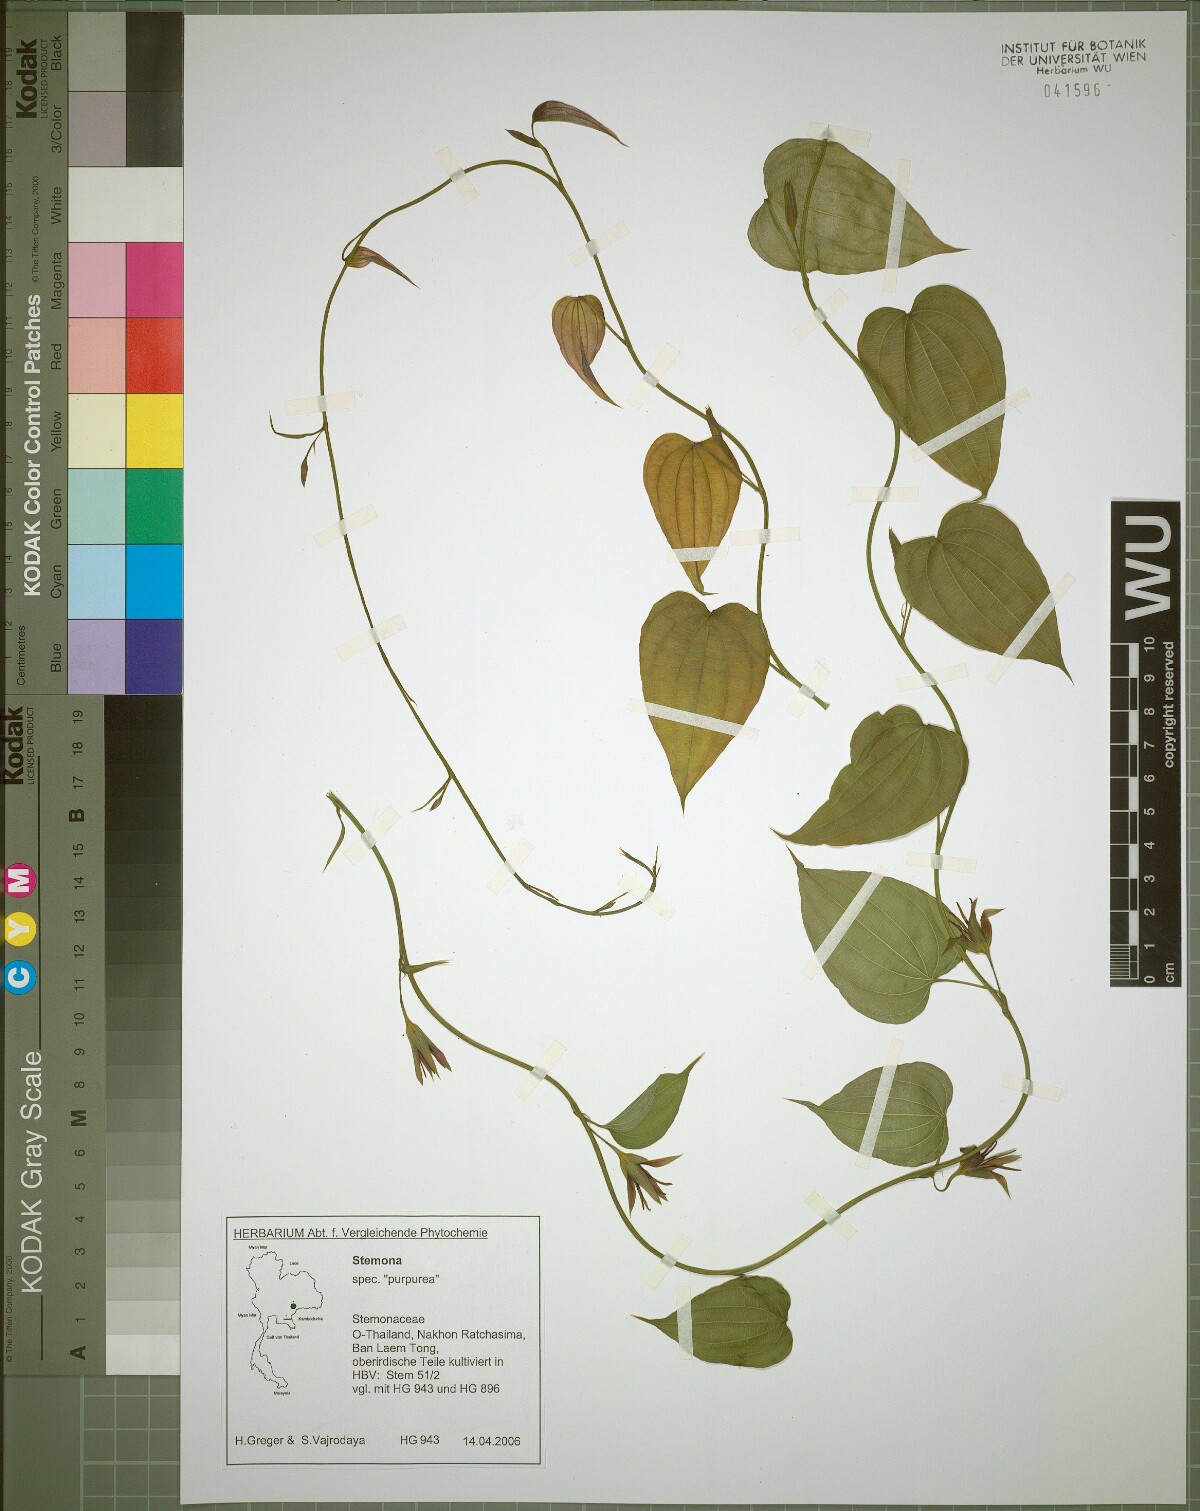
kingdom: Plantae
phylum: Tracheophyta
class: Liliopsida
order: Pandanales
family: Stemonaceae
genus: Stemona
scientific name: Stemona involuta
